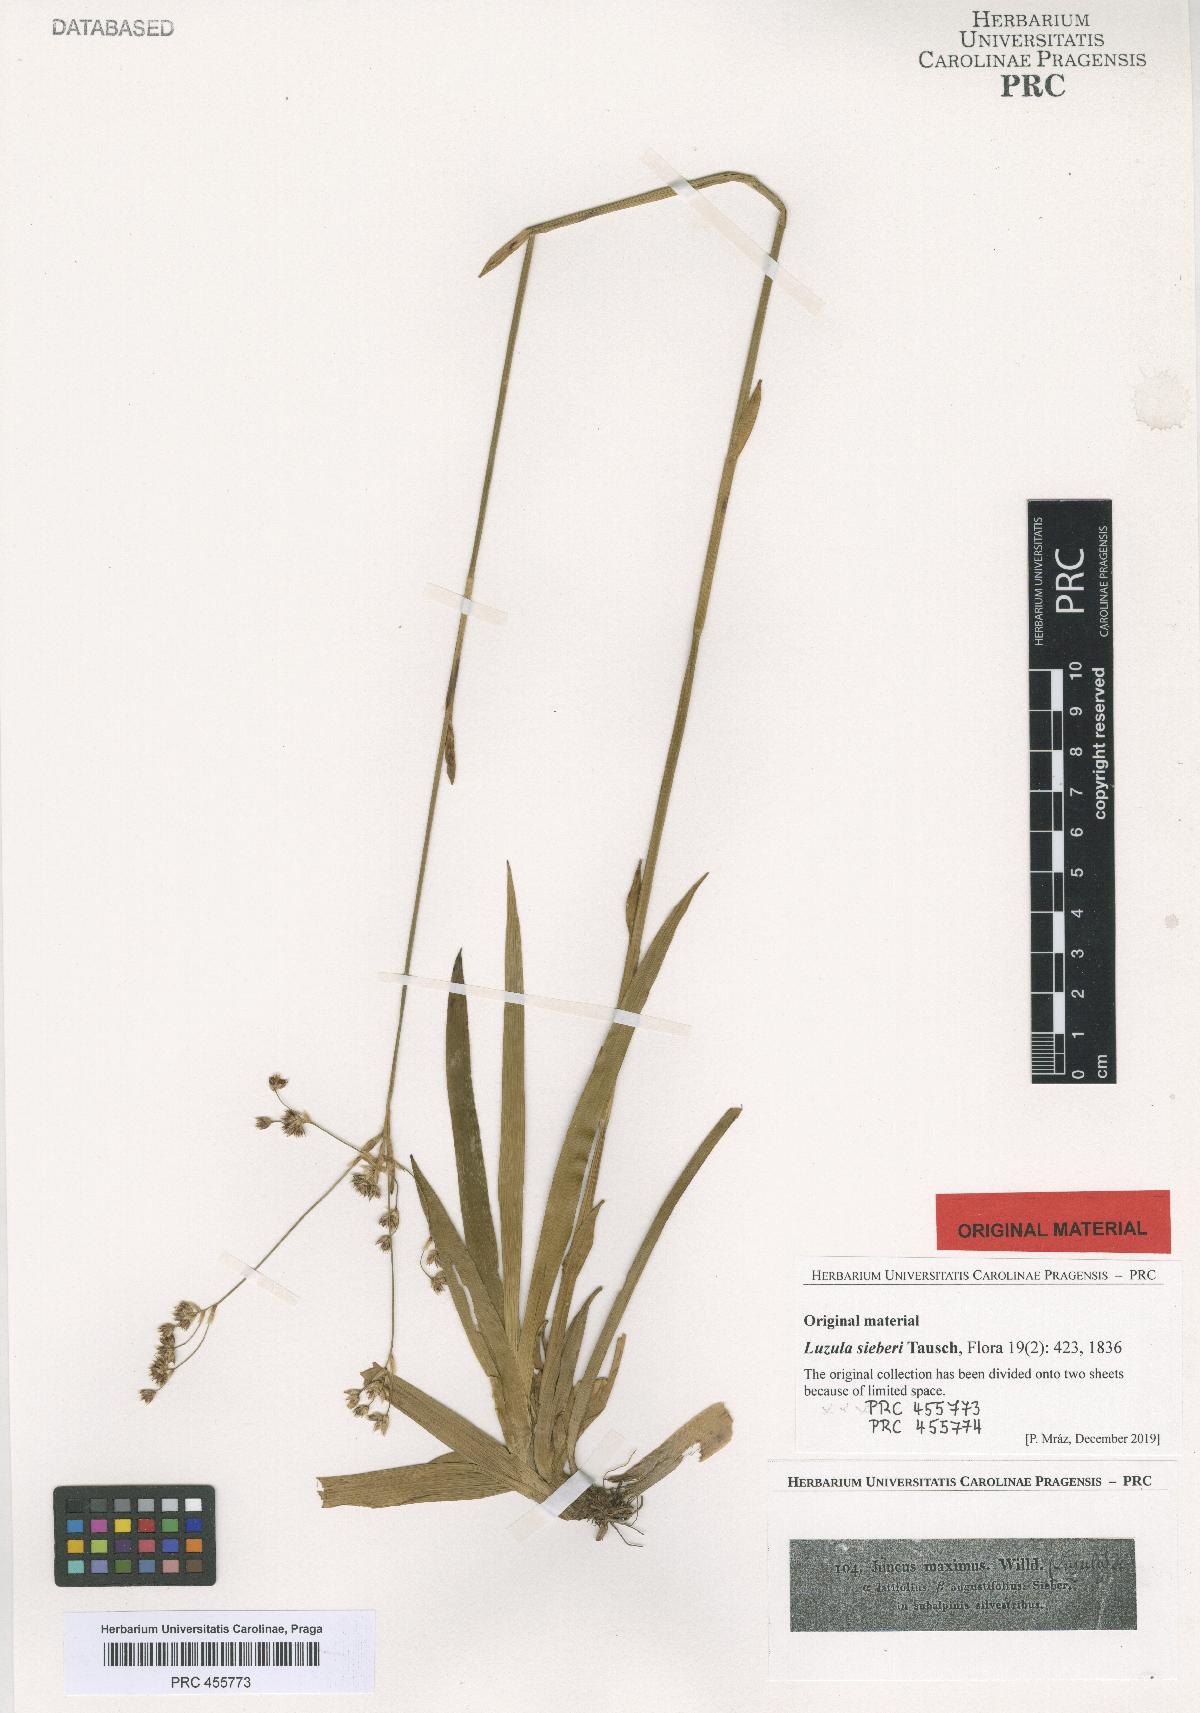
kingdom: Plantae
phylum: Tracheophyta
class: Liliopsida
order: Poales
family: Juncaceae
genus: Luzula
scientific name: Luzula sylvatica
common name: Great wood-rush
